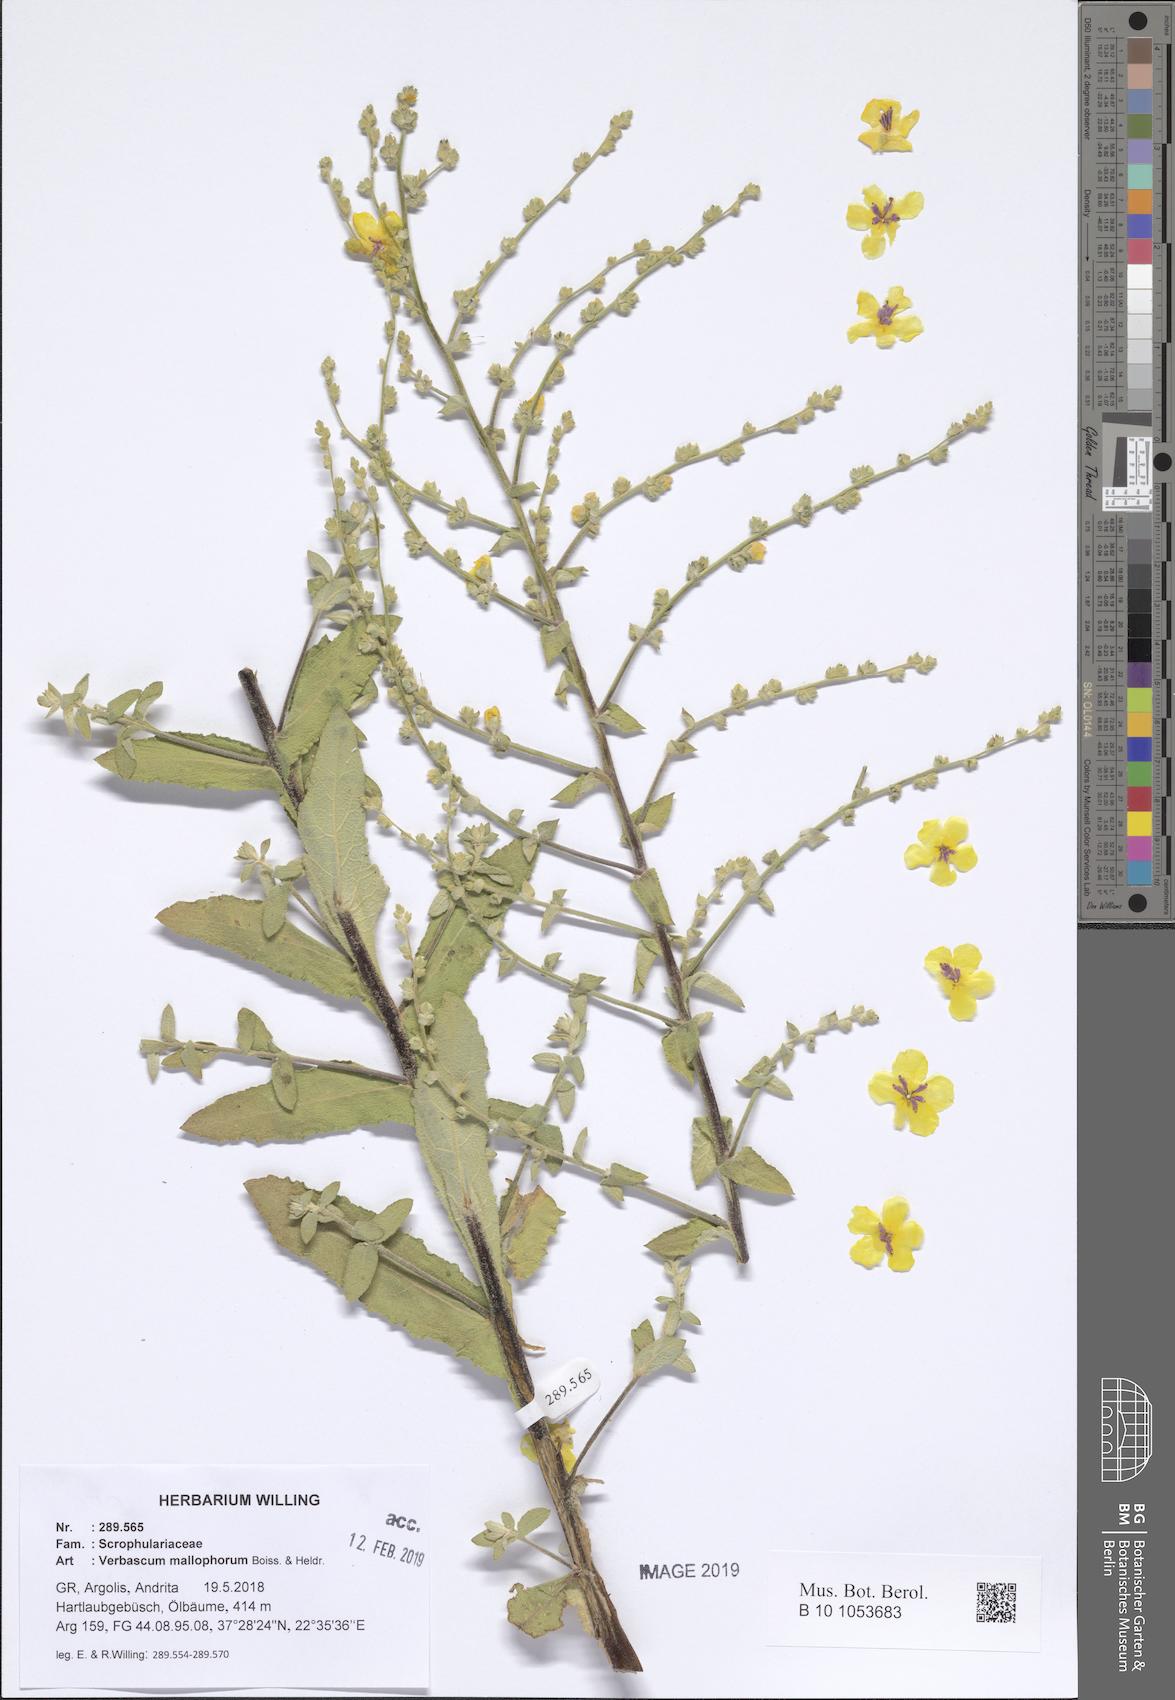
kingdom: Plantae
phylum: Tracheophyta
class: Magnoliopsida
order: Lamiales
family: Scrophulariaceae
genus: Verbascum
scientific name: Verbascum mallophorum
